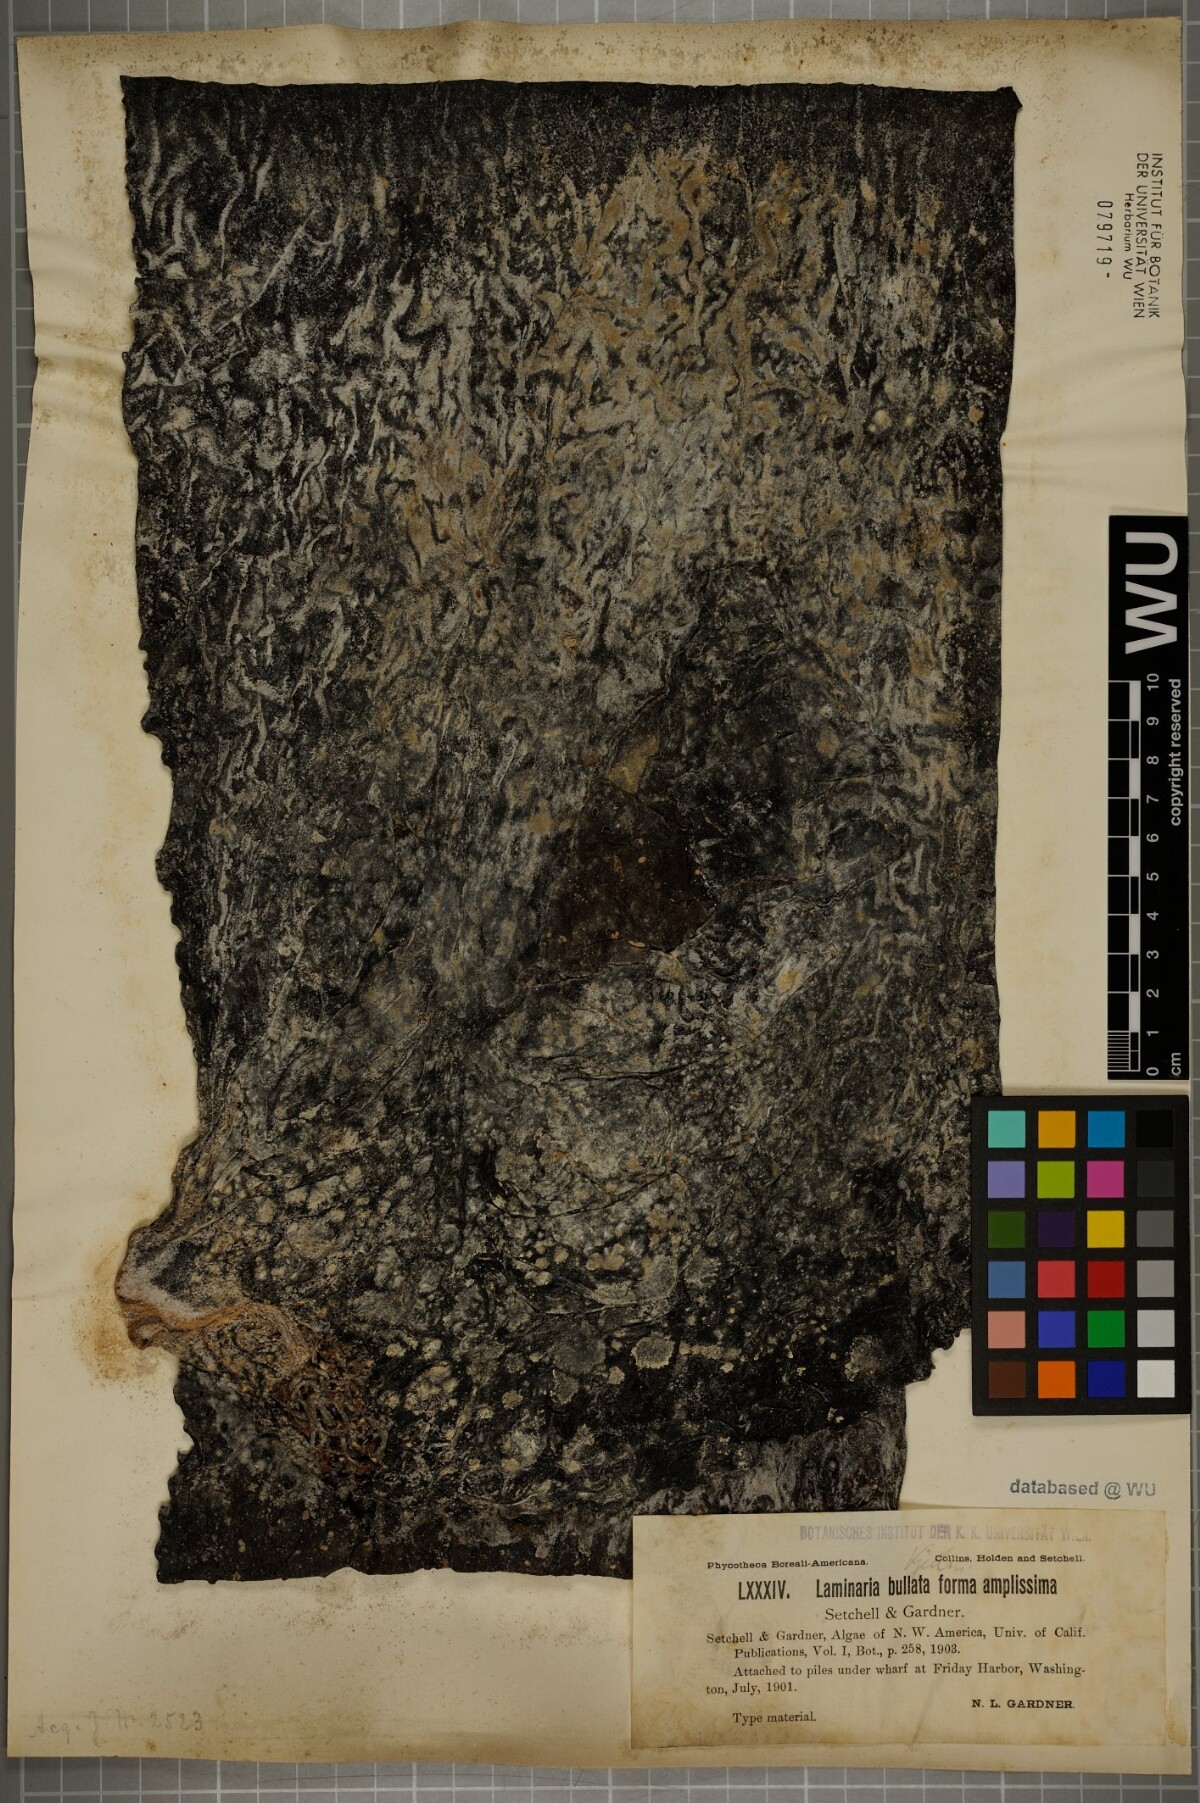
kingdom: Chromista
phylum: Ochrophyta
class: Phaeophyceae
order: Laminariales
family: Laminariaceae
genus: Laminaria
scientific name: Laminaria
